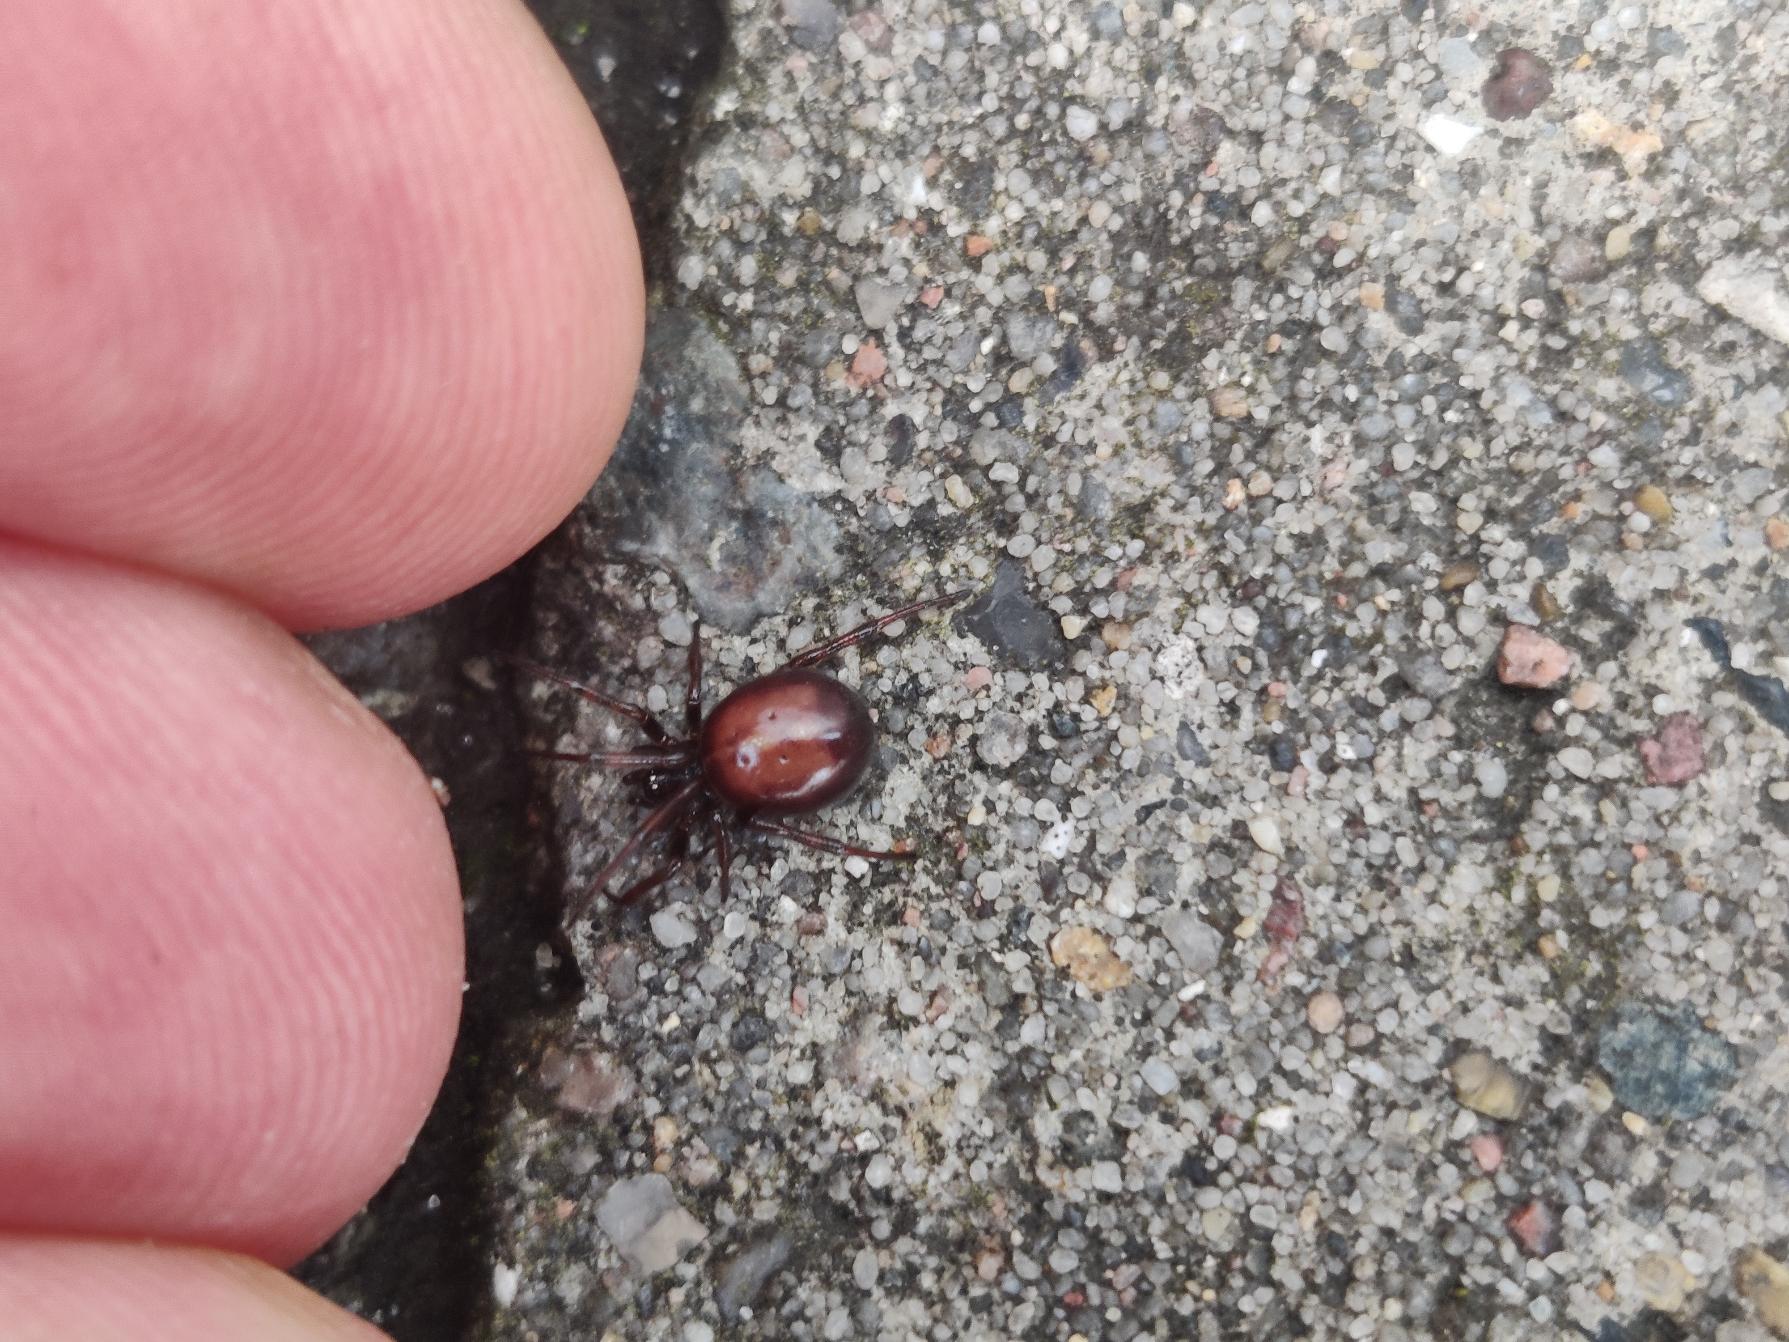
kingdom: Animalia
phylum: Arthropoda
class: Arachnida
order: Araneae
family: Theridiidae
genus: Steatoda
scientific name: Steatoda bipunctata
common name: Fedtedderkop
